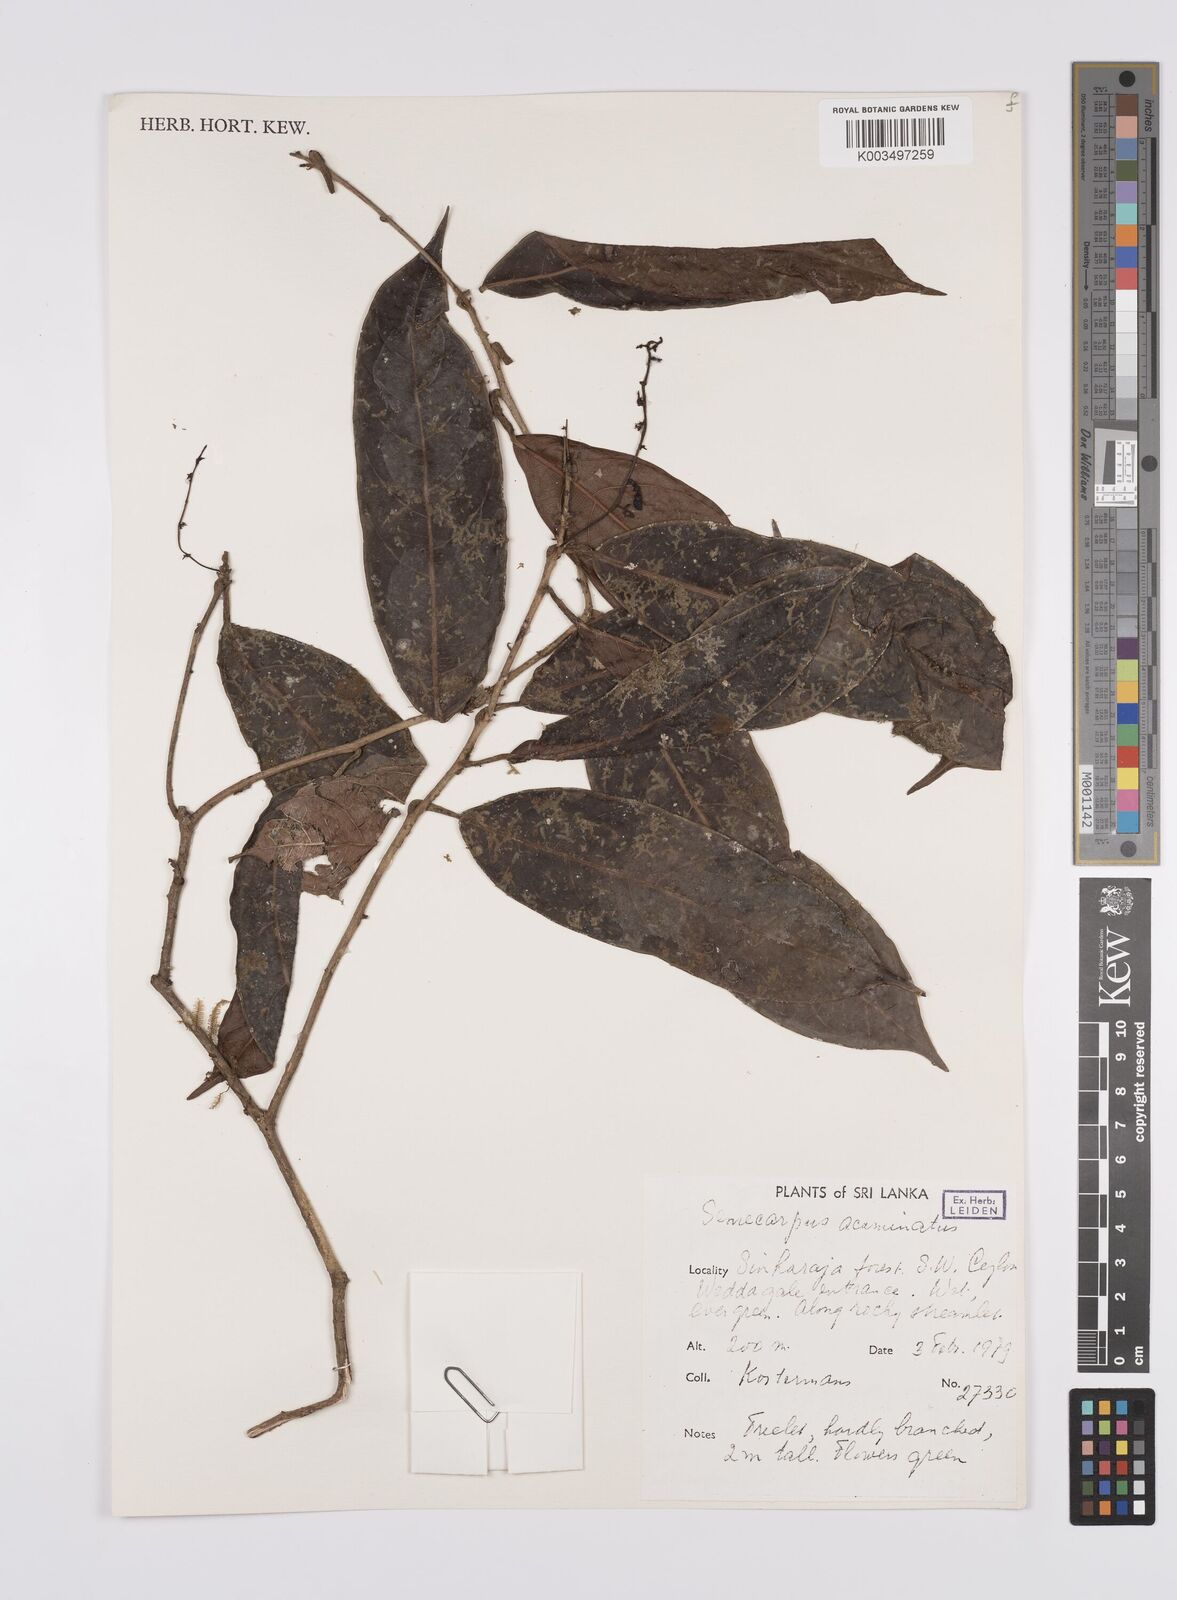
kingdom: Plantae
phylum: Tracheophyta
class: Magnoliopsida
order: Sapindales
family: Anacardiaceae
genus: Semecarpus
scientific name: Semecarpus
